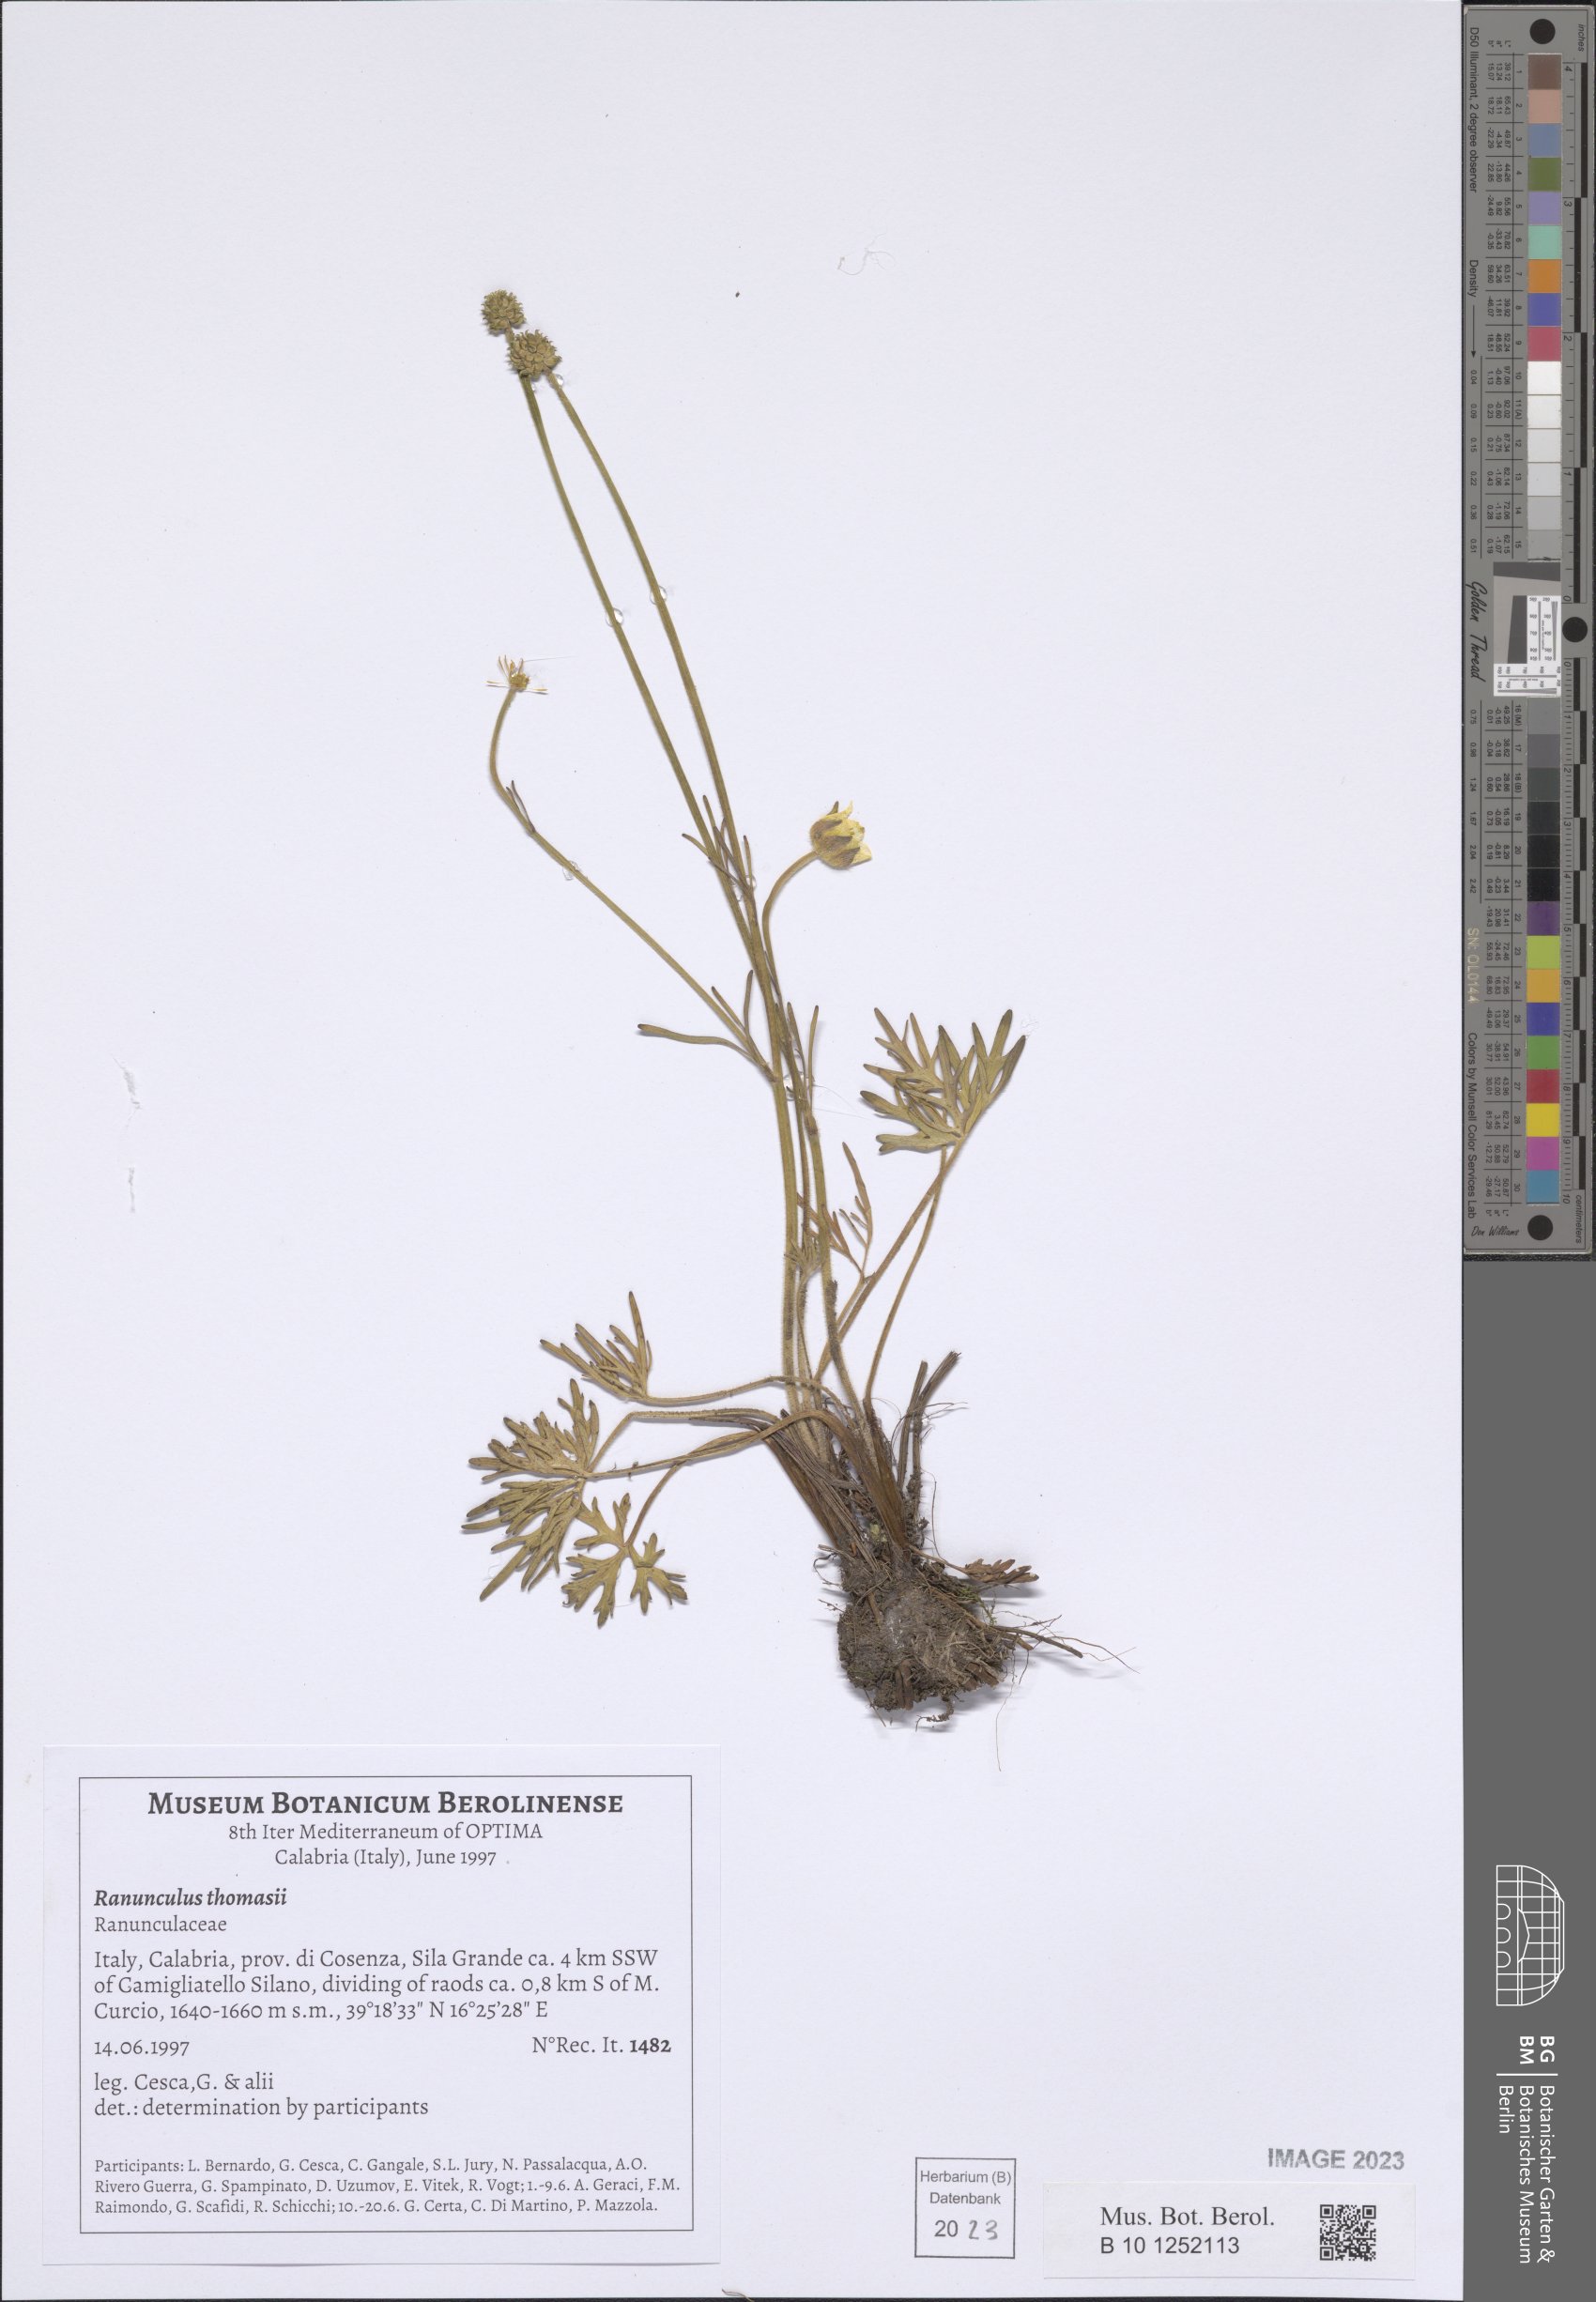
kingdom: Plantae
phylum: Tracheophyta
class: Magnoliopsida
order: Ranunculales
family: Ranunculaceae
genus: Ranunculus
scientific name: Ranunculus polyanthemos
